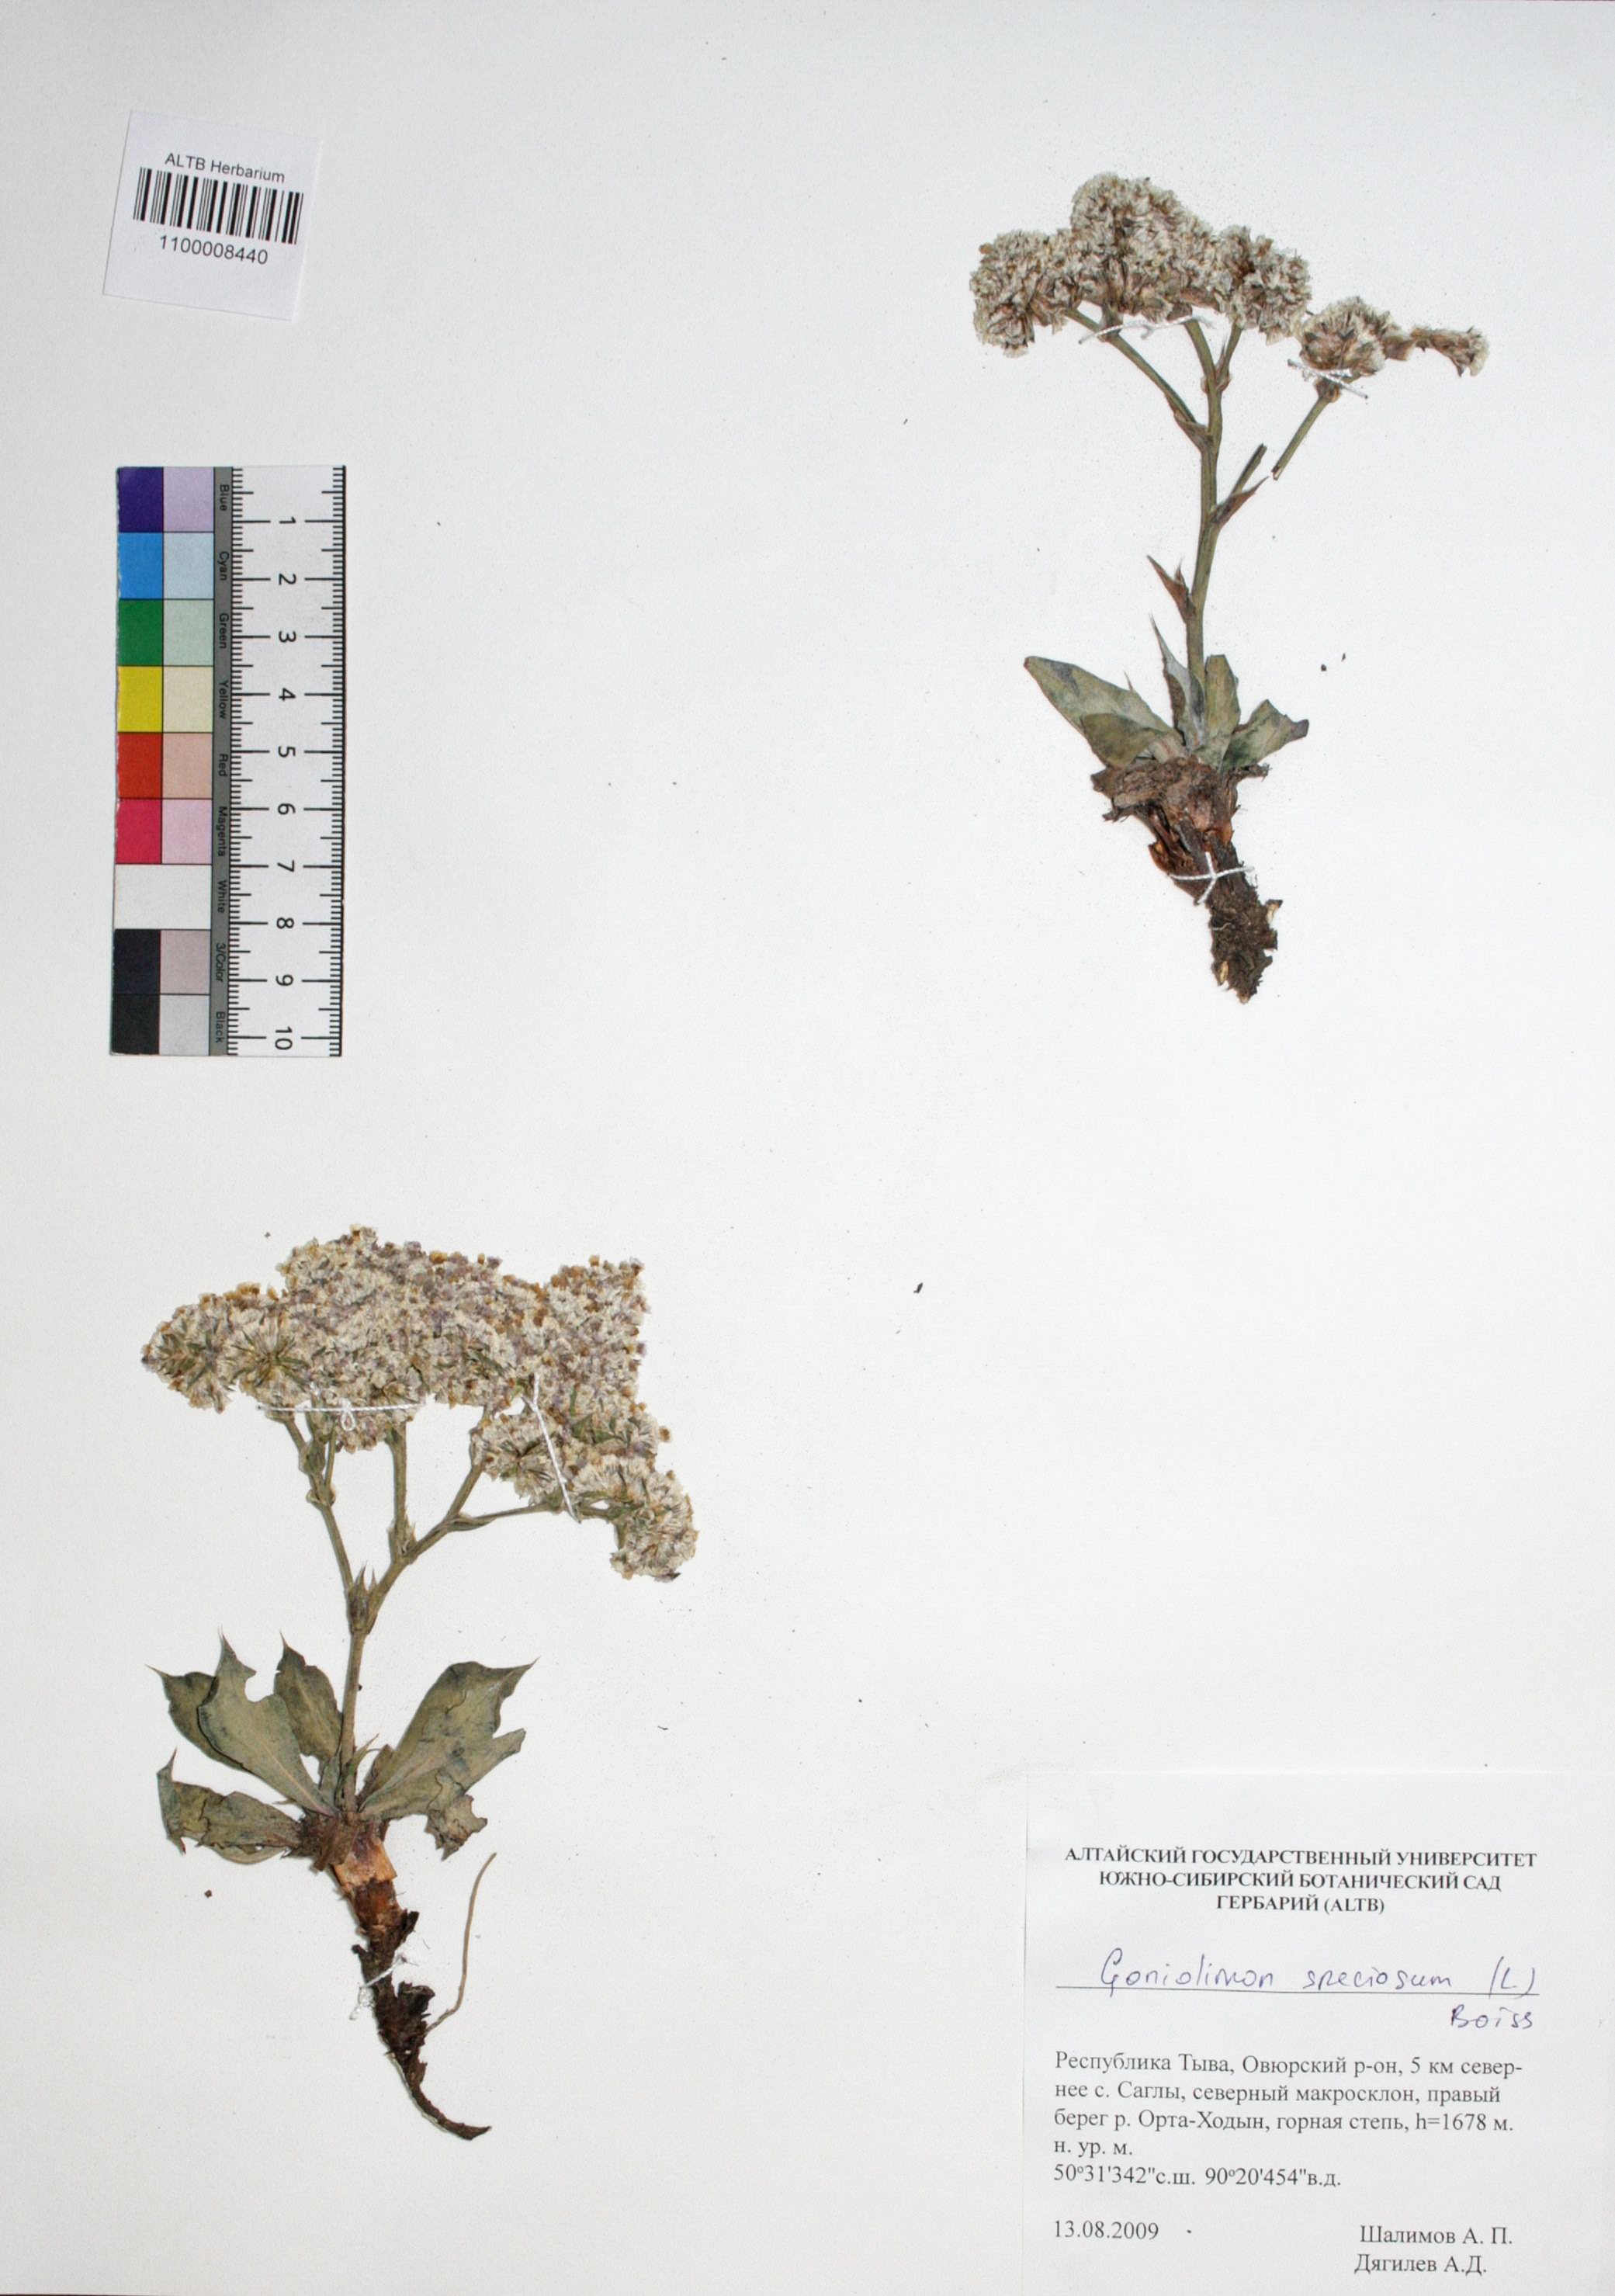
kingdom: Plantae
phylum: Tracheophyta
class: Magnoliopsida
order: Caryophyllales
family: Plumbaginaceae
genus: Goniolimon
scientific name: Goniolimon speciosum
